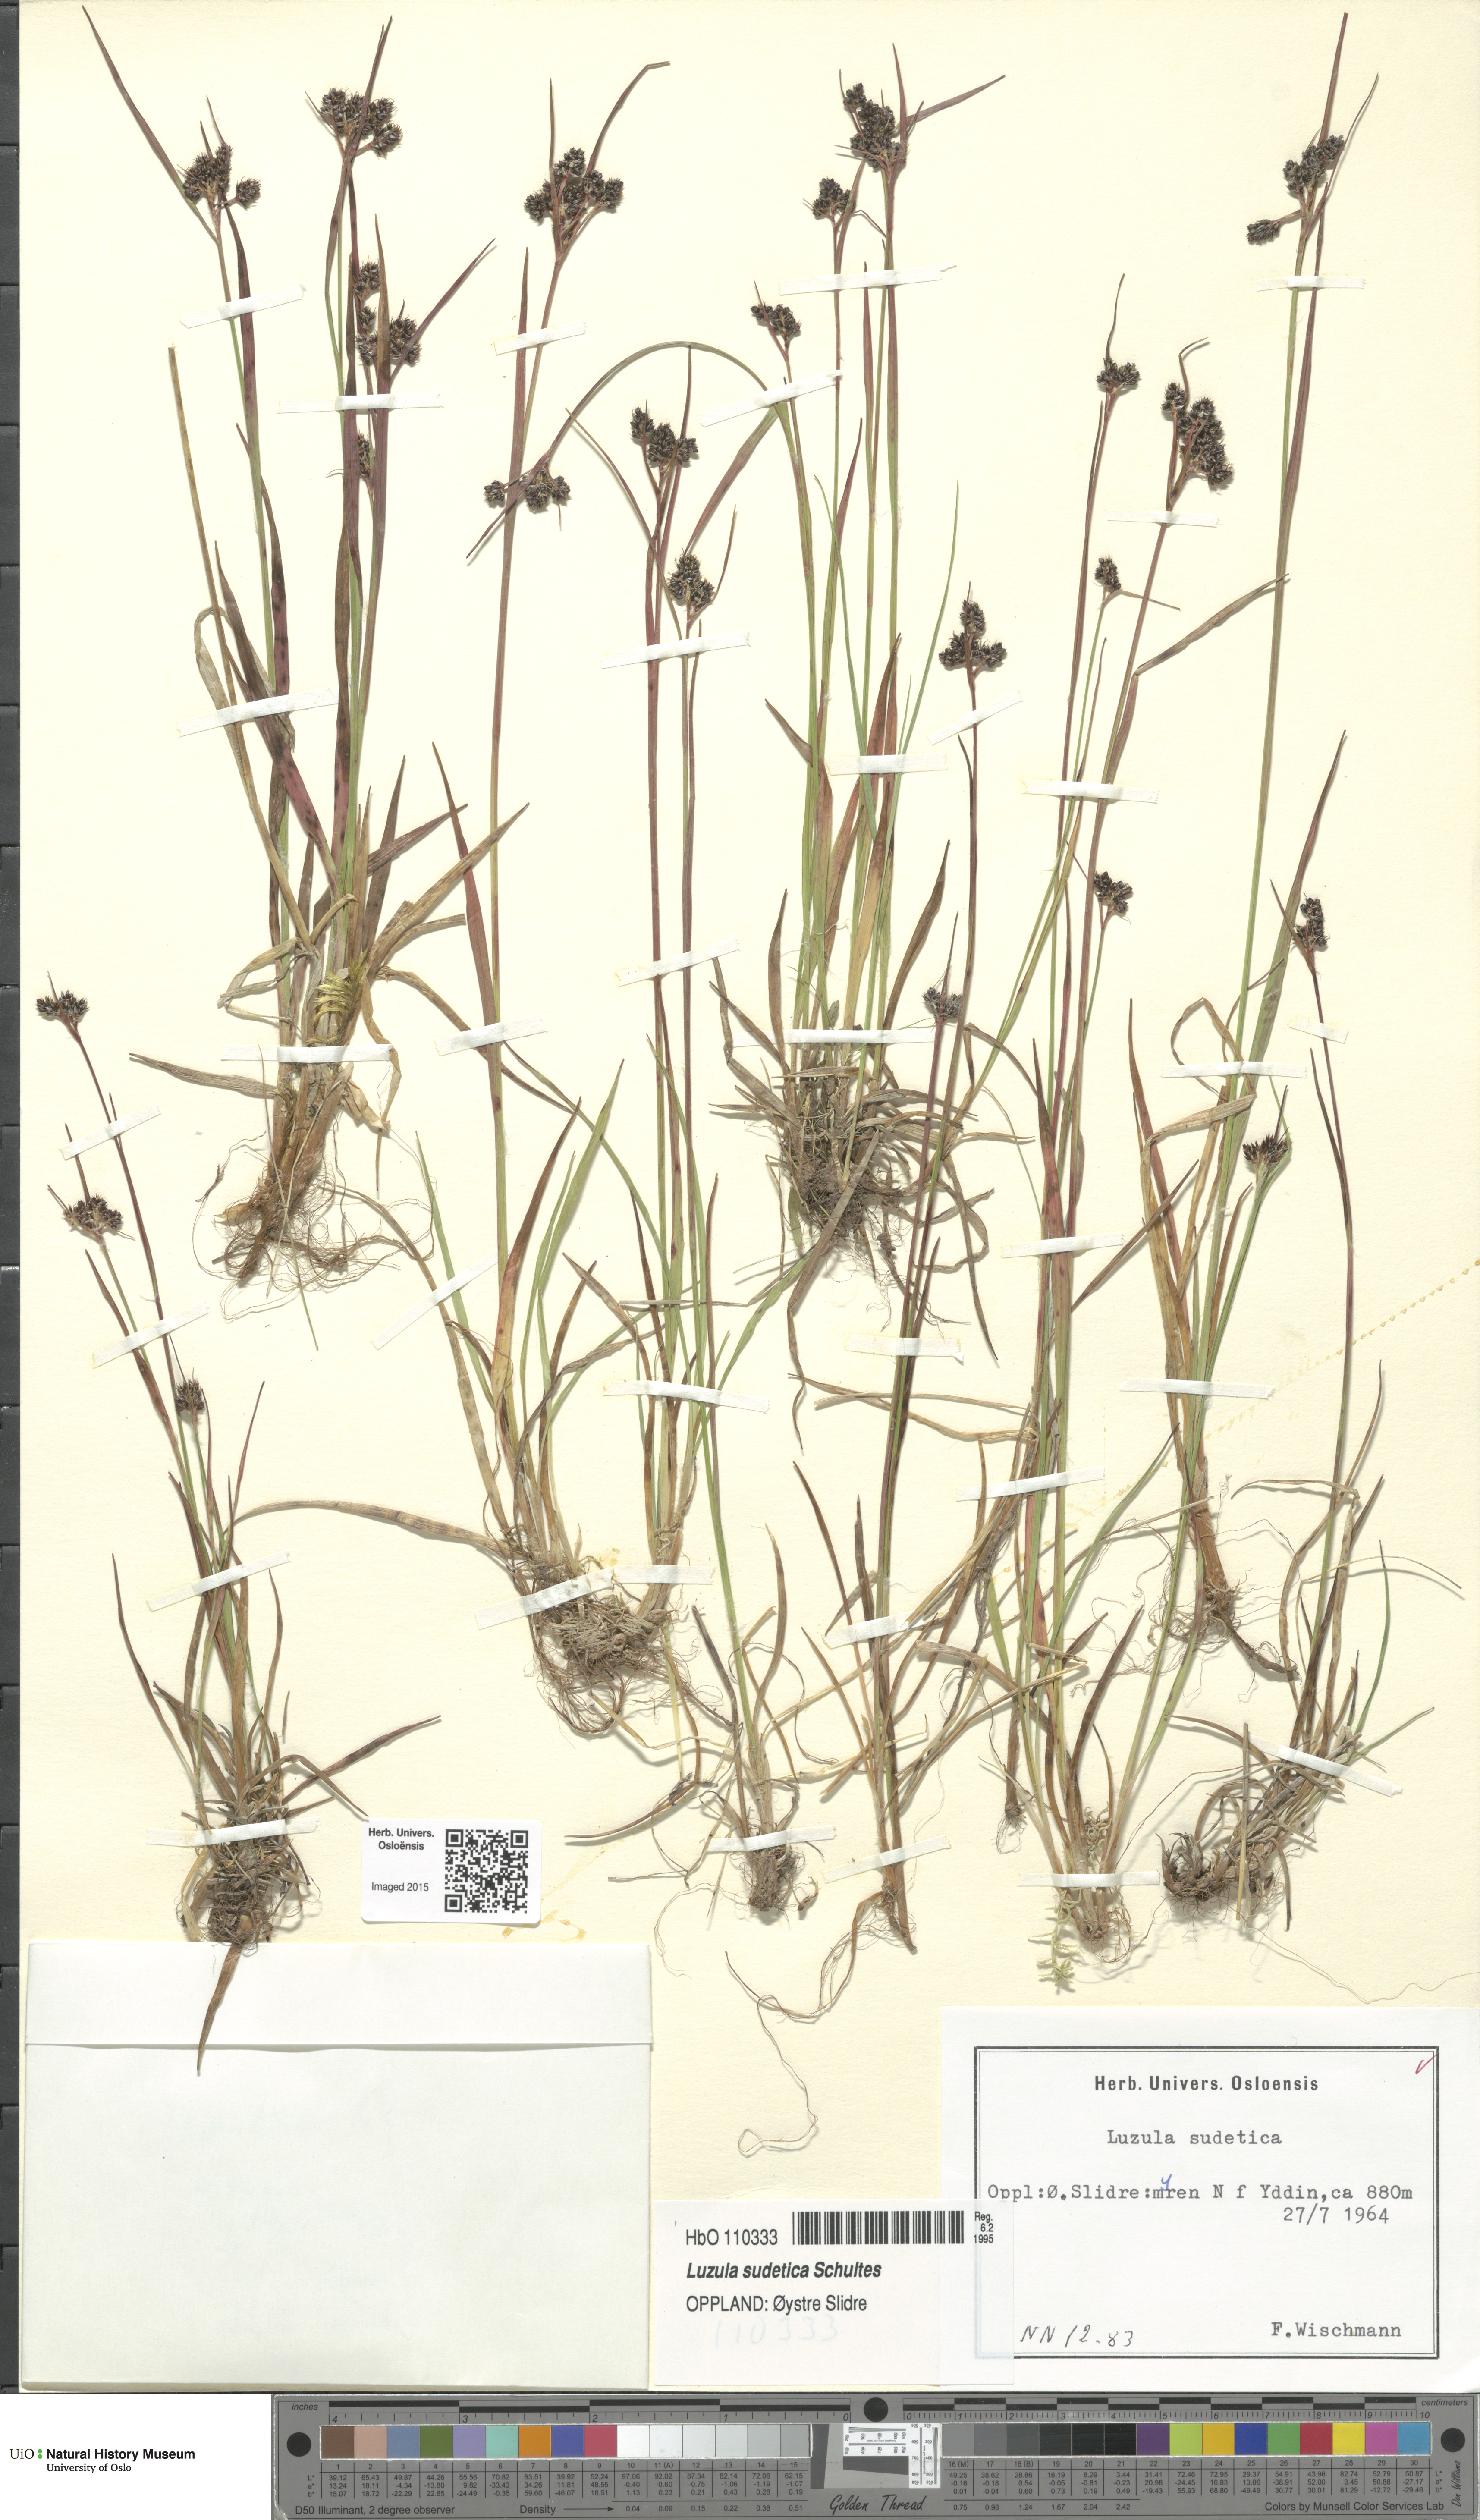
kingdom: Plantae
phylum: Tracheophyta
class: Liliopsida
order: Poales
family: Juncaceae
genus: Luzula
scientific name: Luzula sudetica
